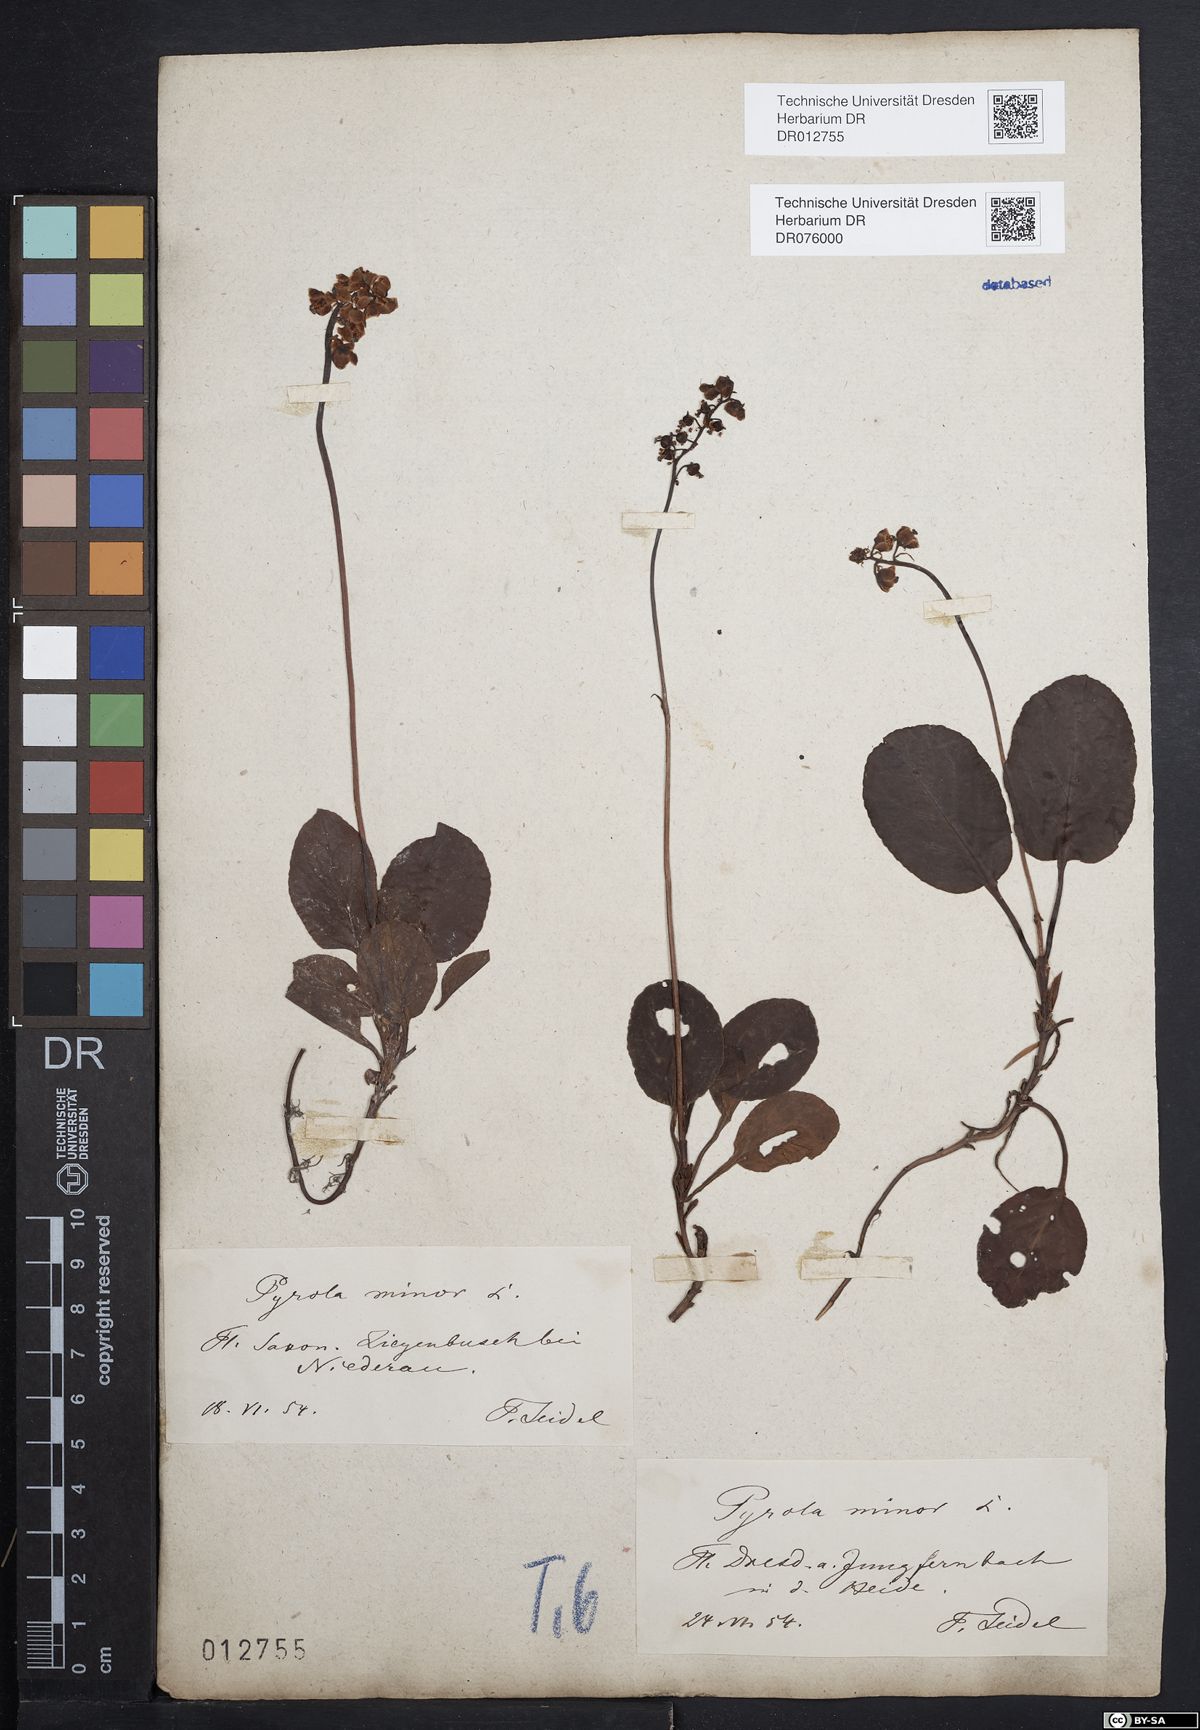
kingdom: Plantae
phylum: Tracheophyta
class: Magnoliopsida
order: Ericales
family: Ericaceae
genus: Pyrola
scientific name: Pyrola minor
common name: Common wintergreen
